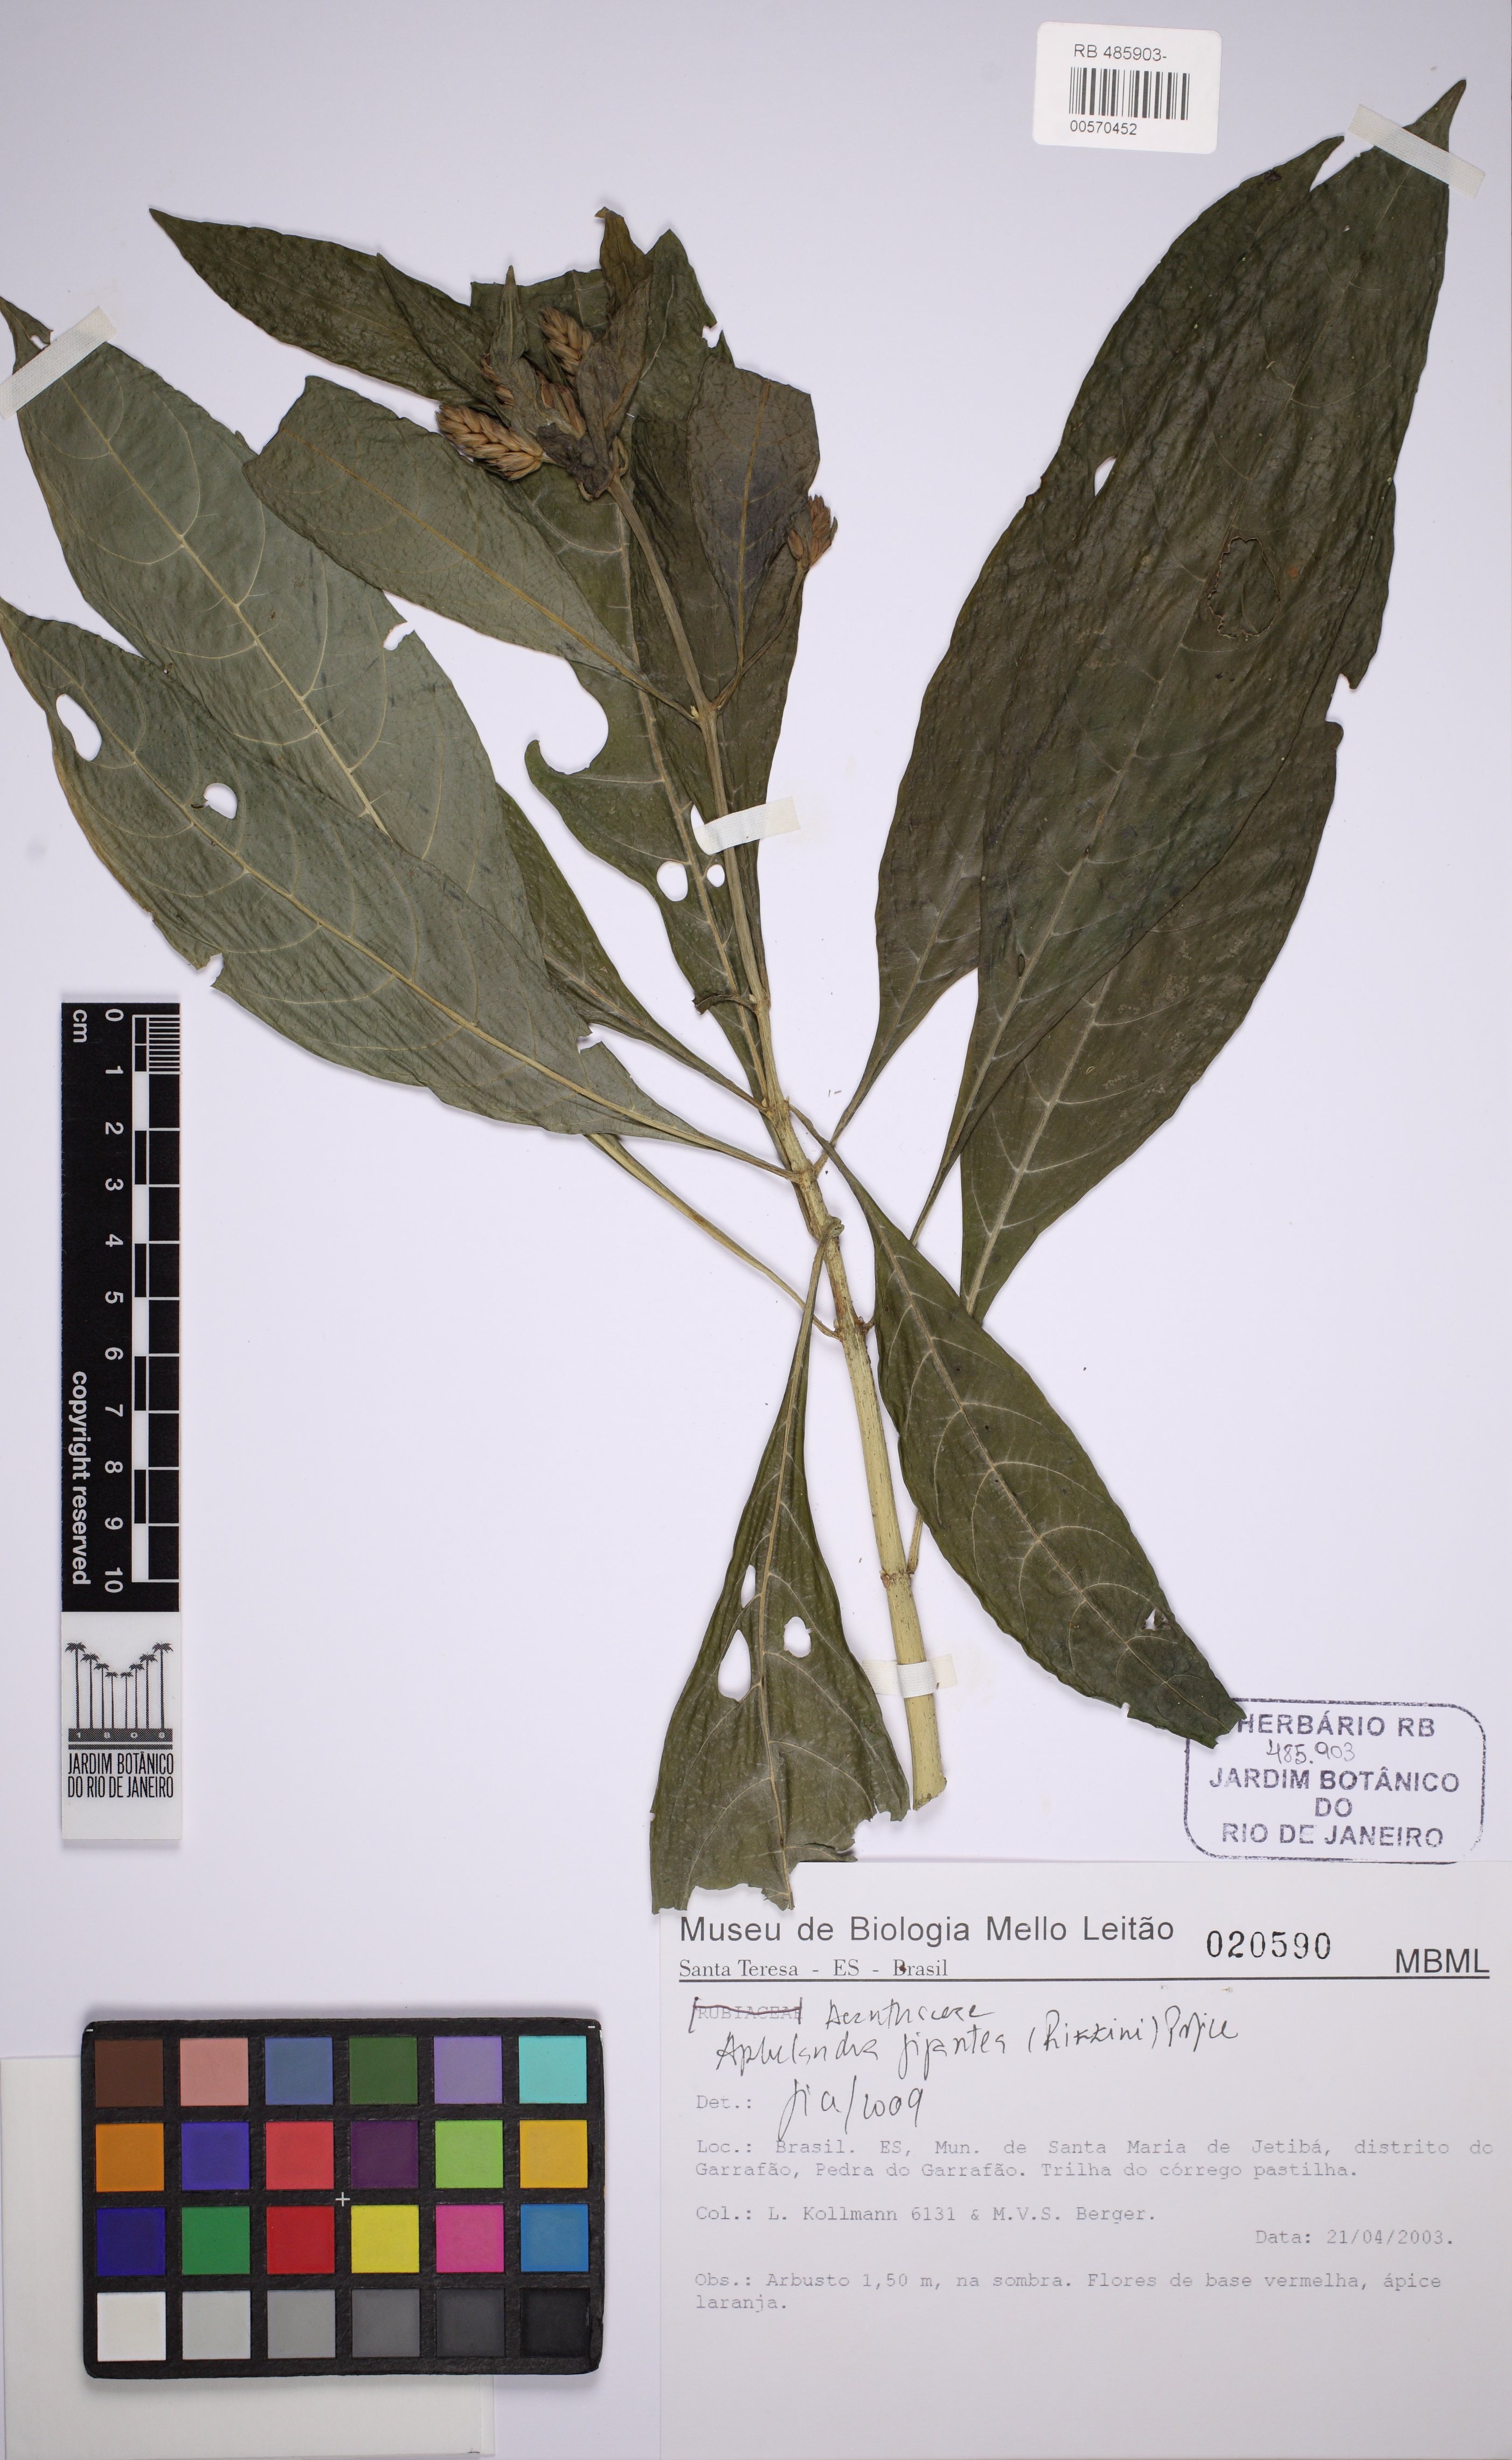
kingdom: Plantae
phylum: Tracheophyta
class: Magnoliopsida
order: Lamiales
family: Acanthaceae
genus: Aphelandra
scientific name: Aphelandra gigantea
